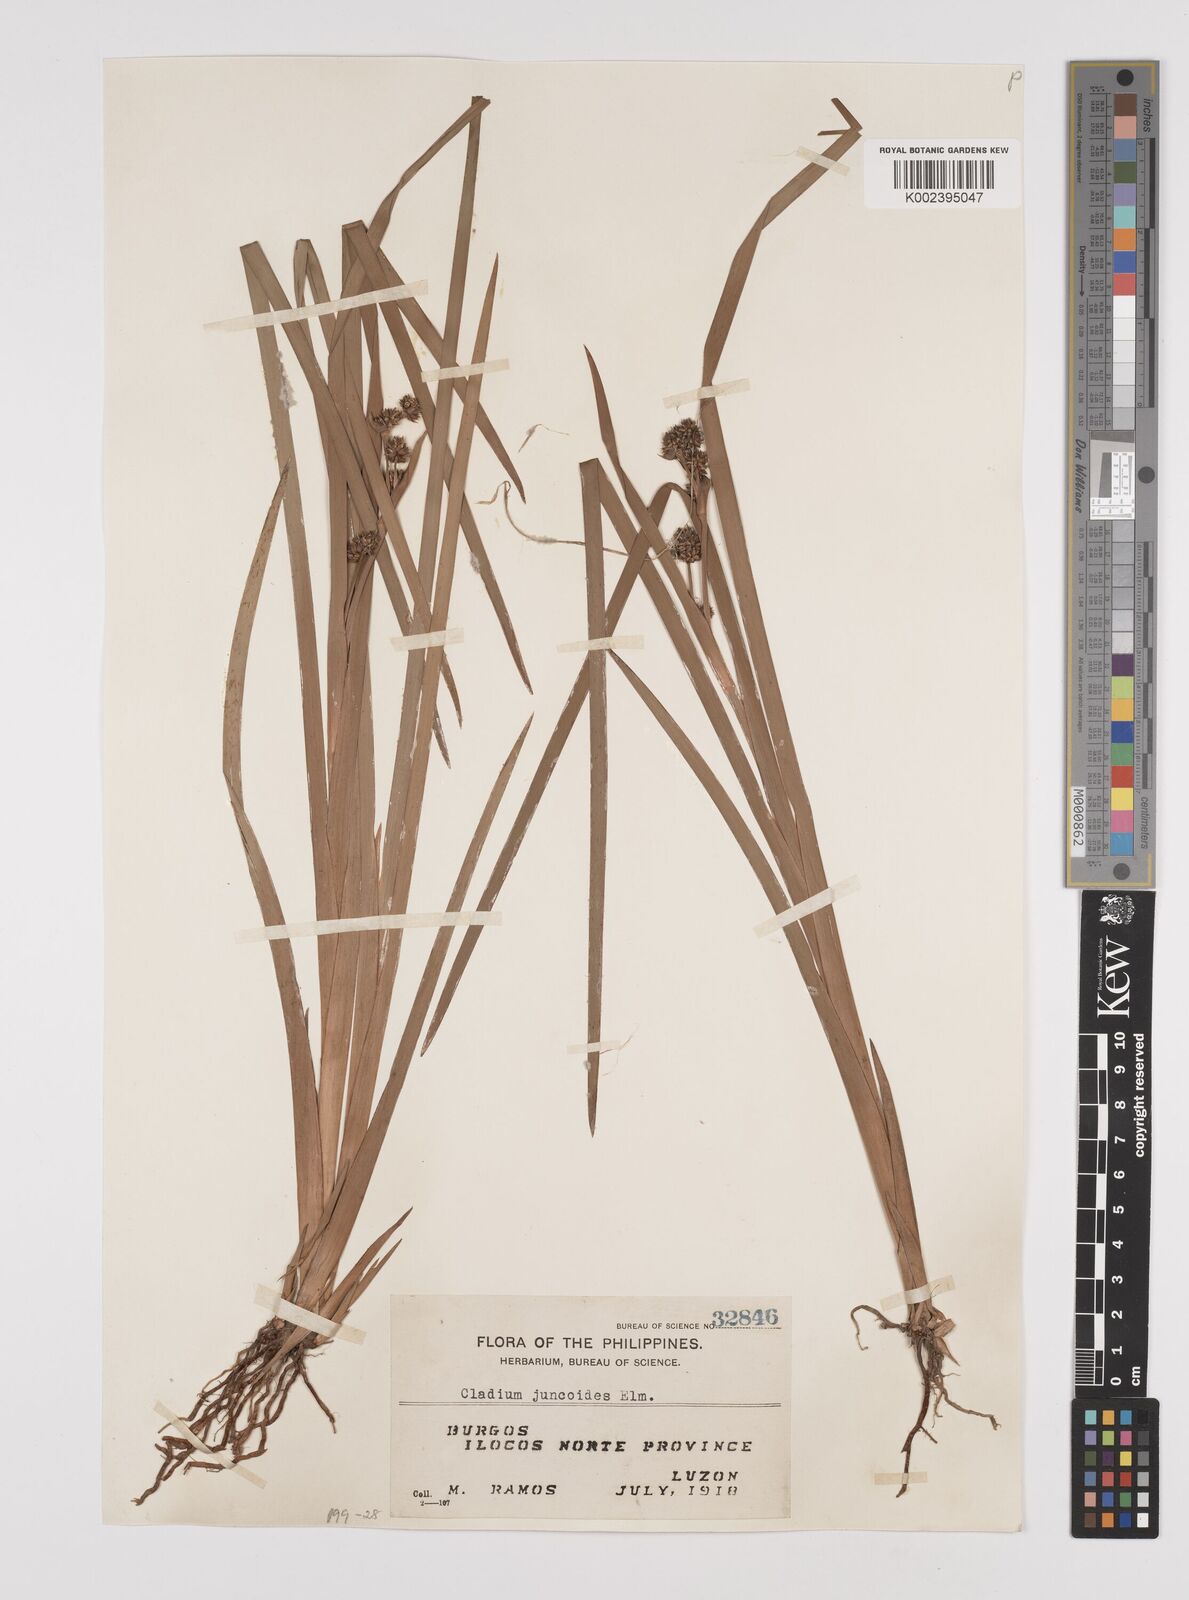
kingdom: Plantae
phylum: Tracheophyta
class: Liliopsida
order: Poales
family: Cyperaceae
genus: Machaerina
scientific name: Machaerina glomerata
